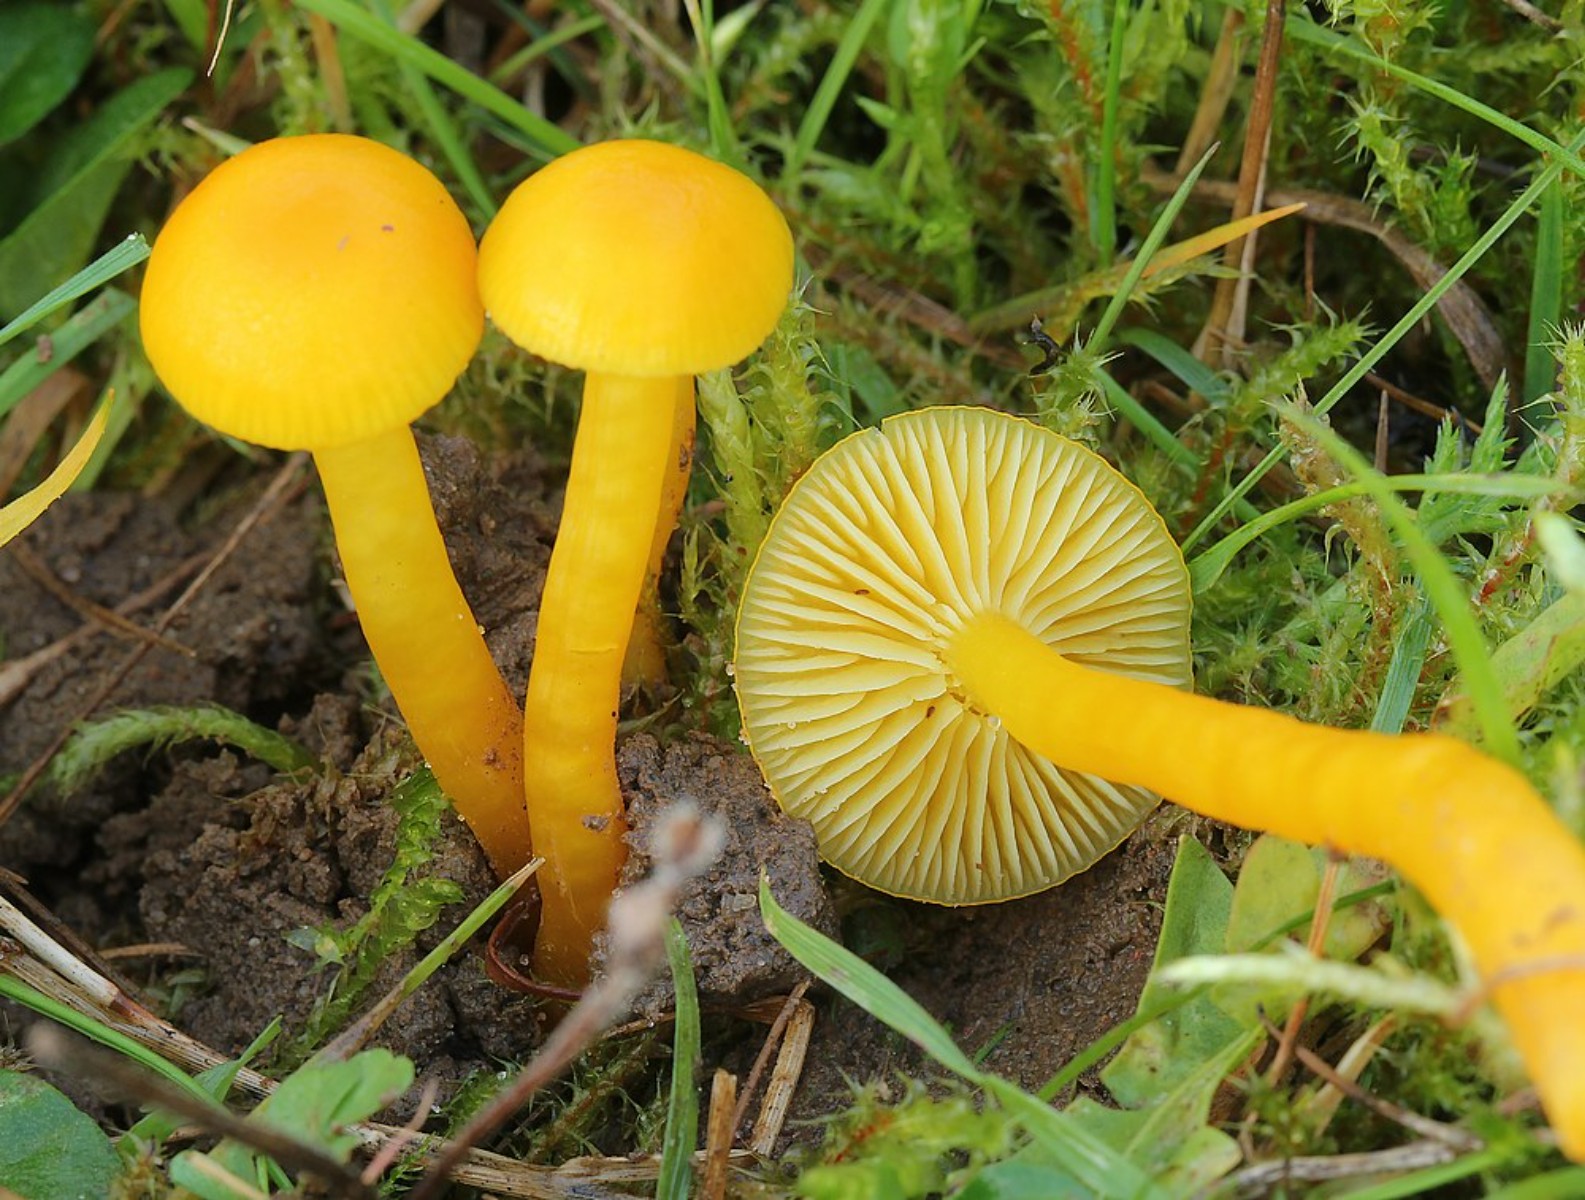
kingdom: Fungi
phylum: Basidiomycota
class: Agaricomycetes
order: Agaricales
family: Hygrophoraceae
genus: Hygrocybe
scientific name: Hygrocybe ceracea
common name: voksgul vokshat
